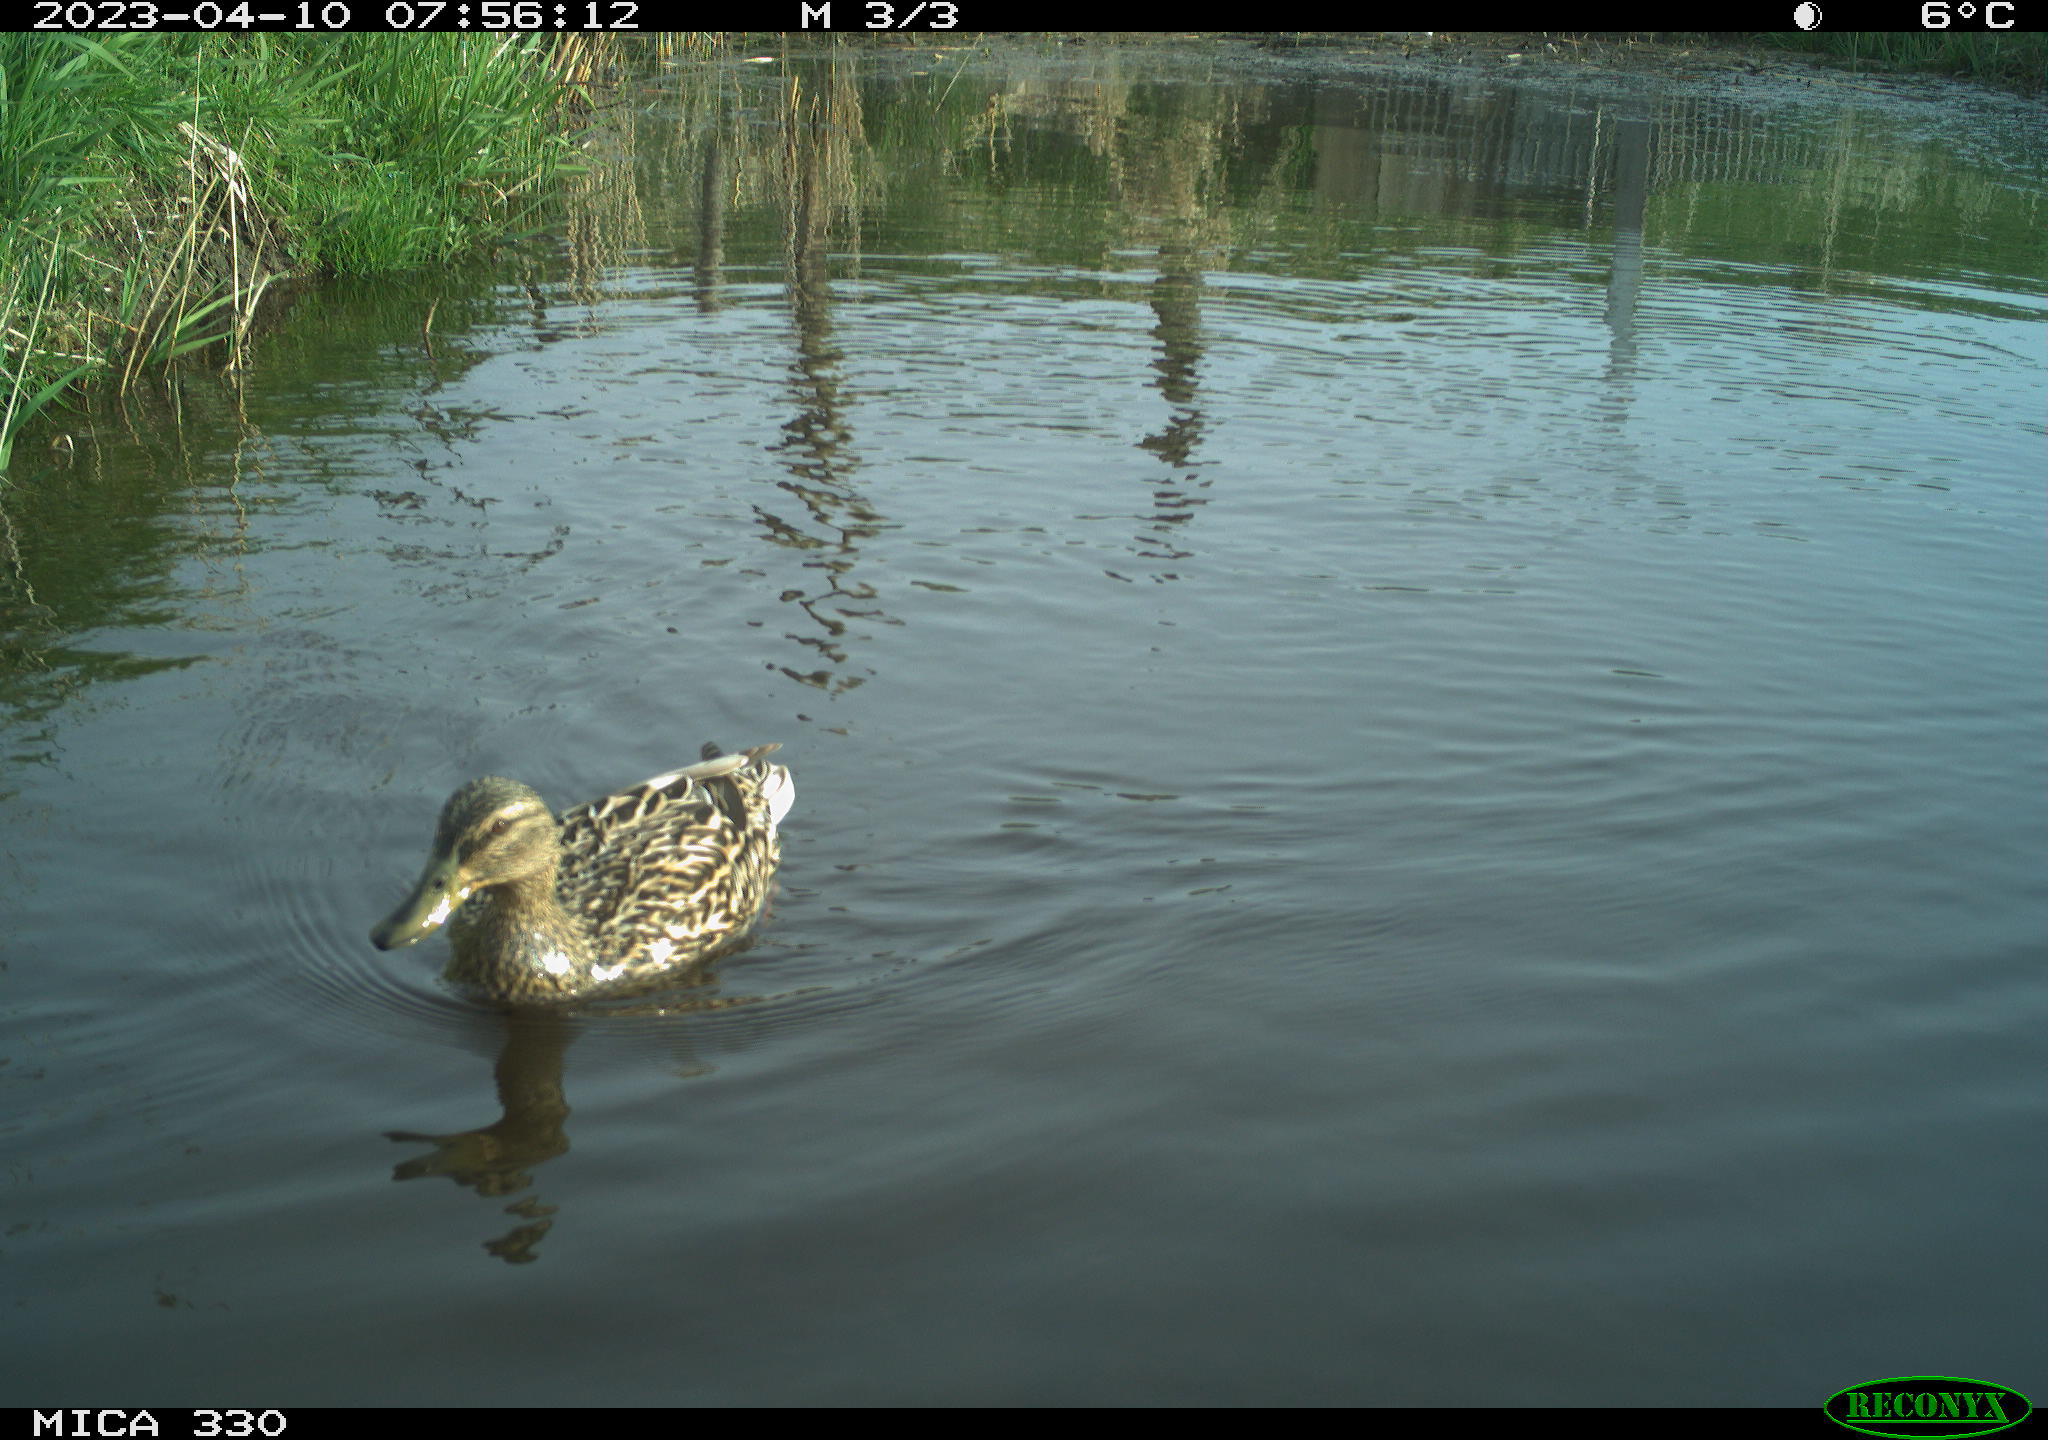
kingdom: Animalia
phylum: Chordata
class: Aves
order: Anseriformes
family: Anatidae
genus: Anas
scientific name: Anas
